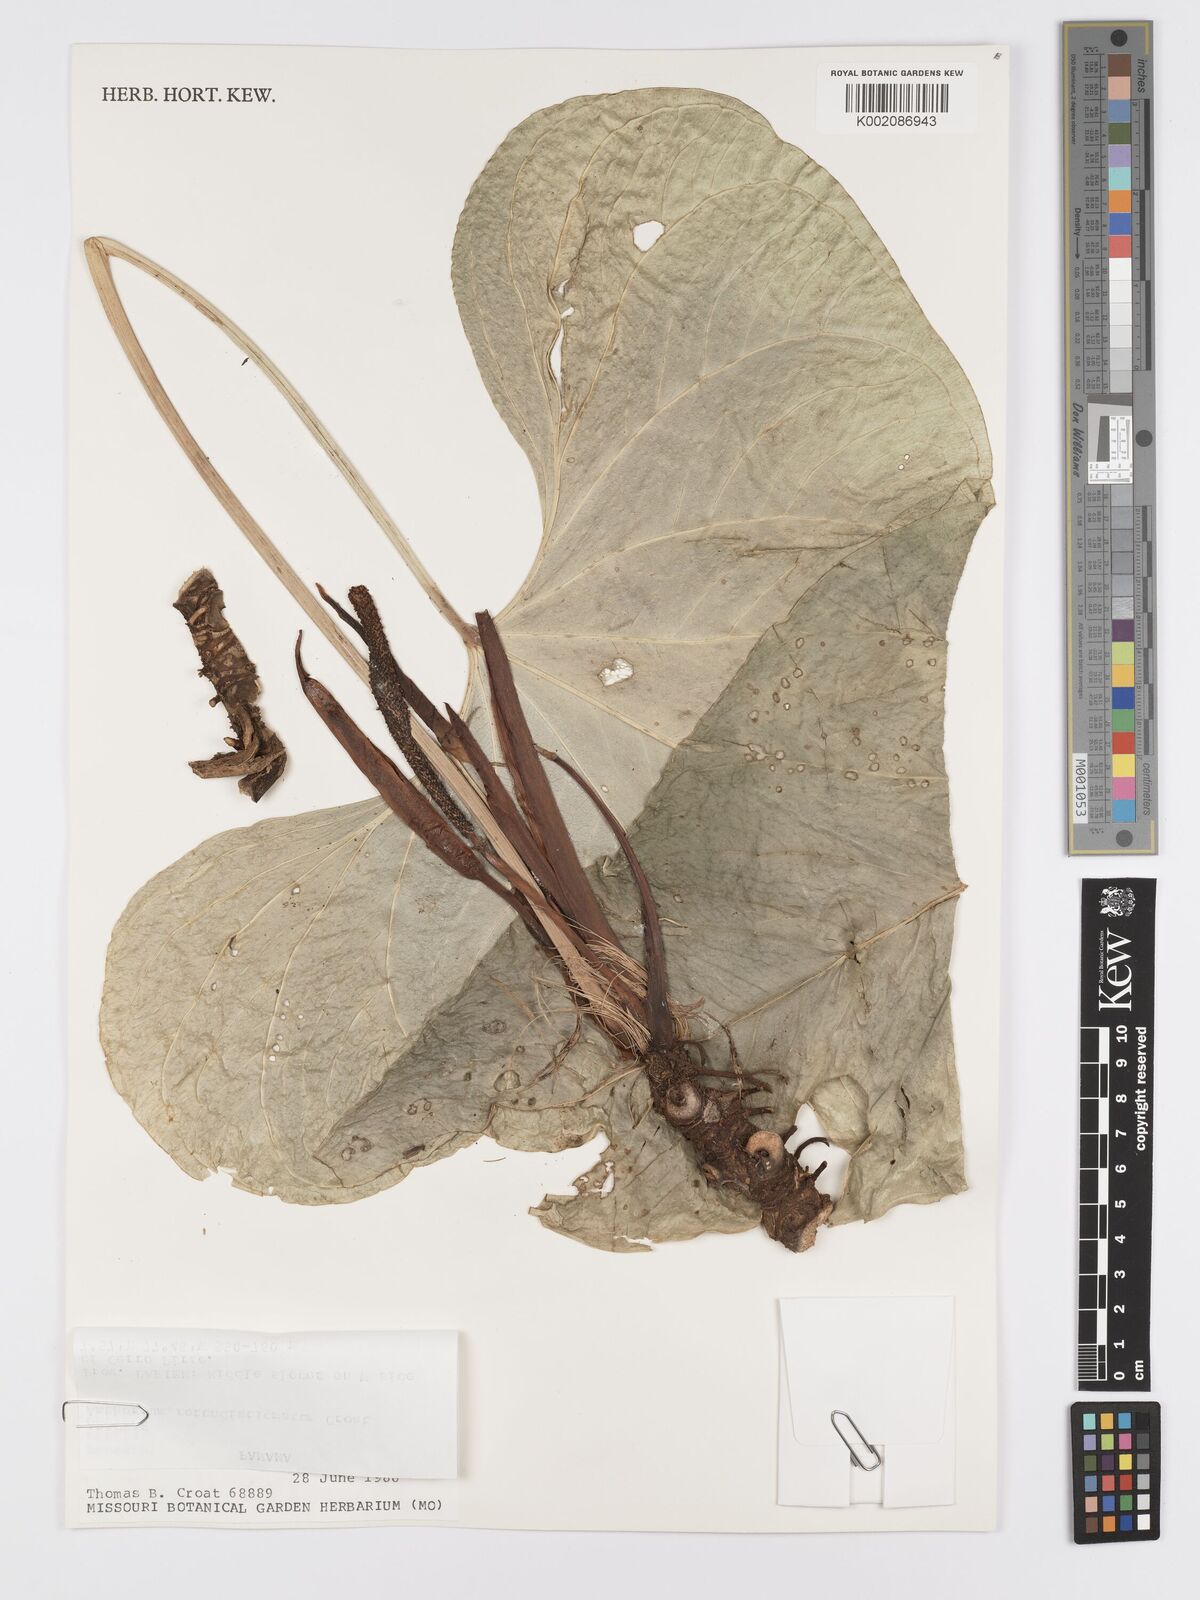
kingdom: Plantae
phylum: Tracheophyta
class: Liliopsida
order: Alismatales
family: Araceae
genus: Anthurium
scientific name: Anthurium rotundistigmatum
